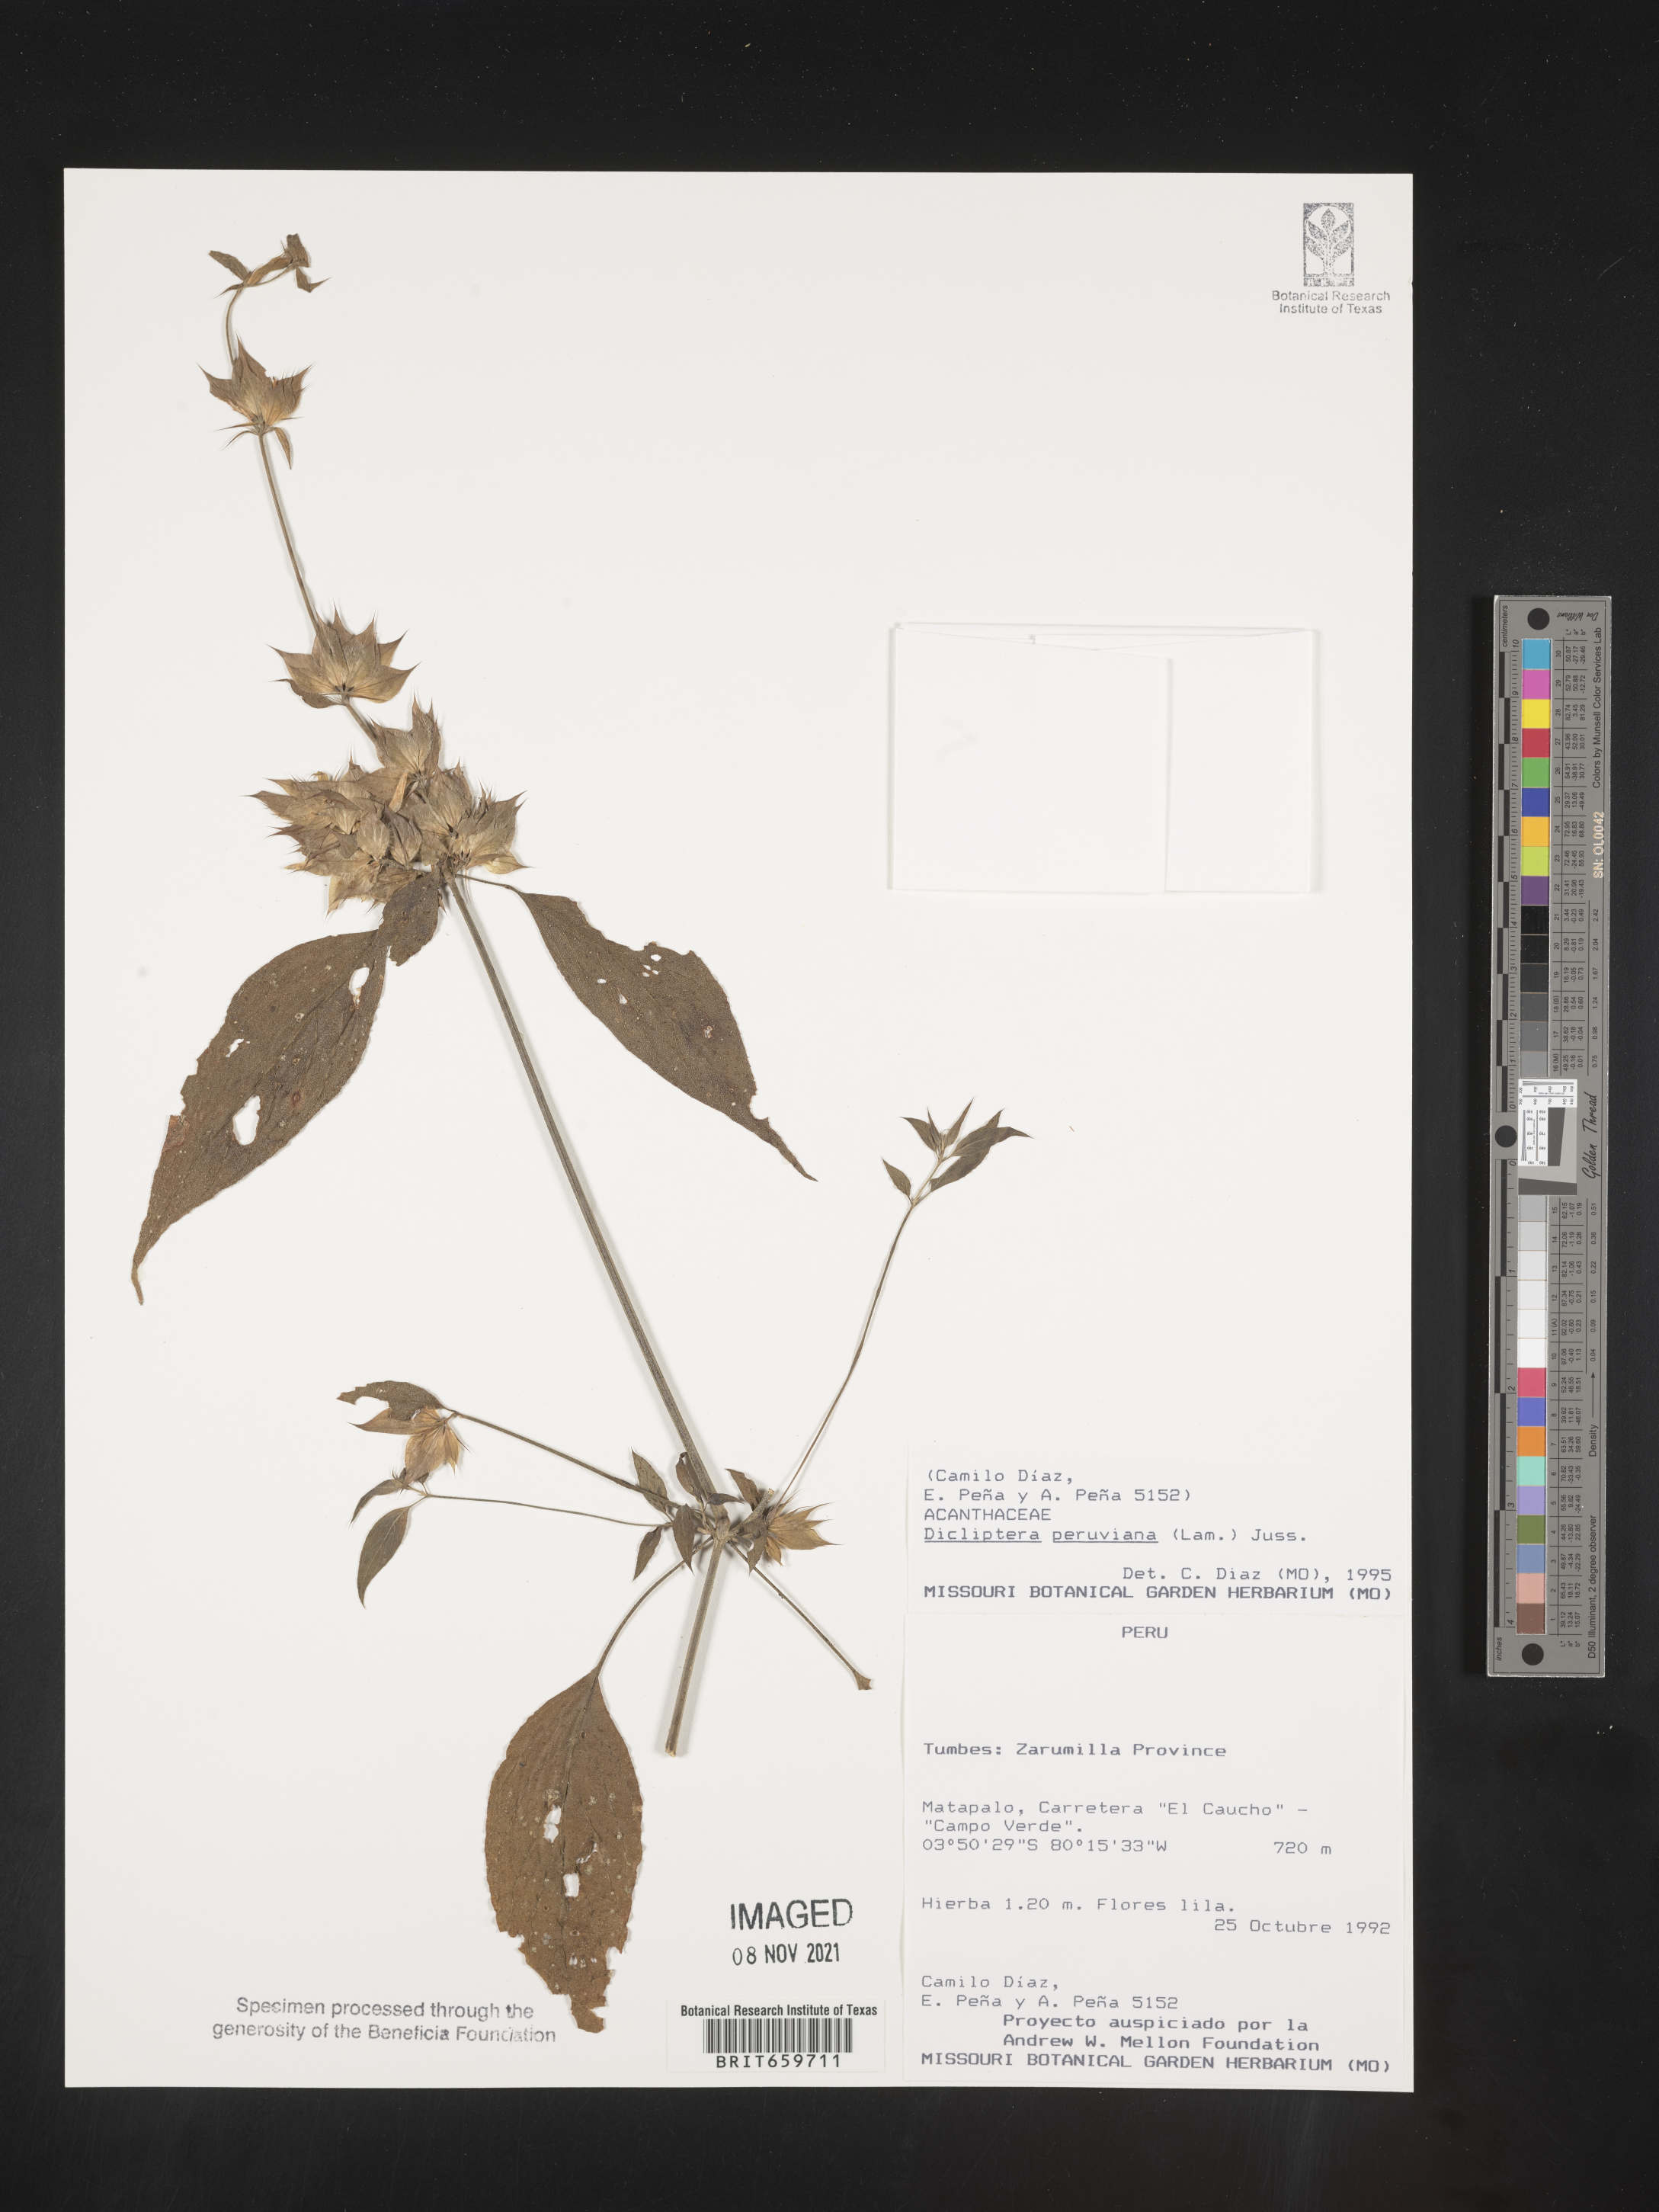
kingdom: Plantae
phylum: Tracheophyta
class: Magnoliopsida
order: Lamiales
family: Acanthaceae
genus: Dicliptera
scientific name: Dicliptera
